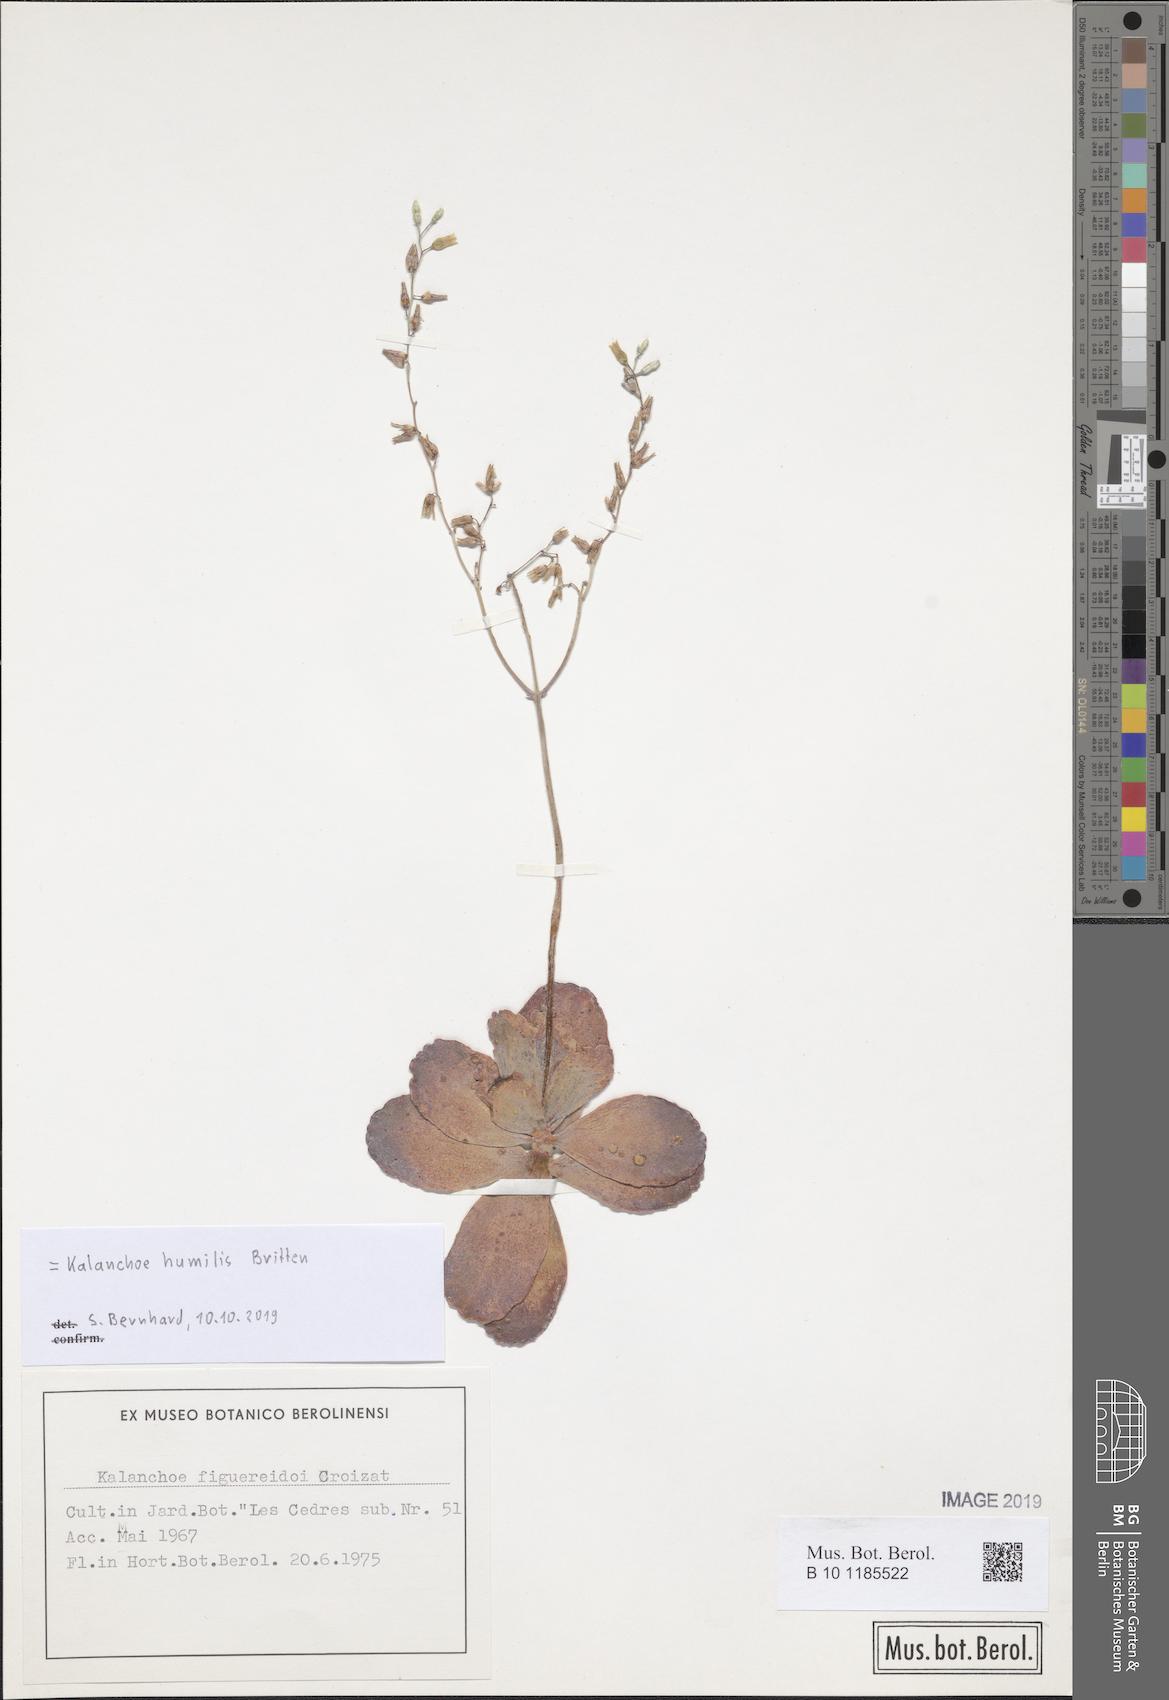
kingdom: Plantae
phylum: Tracheophyta
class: Magnoliopsida
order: Saxifragales
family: Crassulaceae
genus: Kalanchoe
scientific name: Kalanchoe humilis
